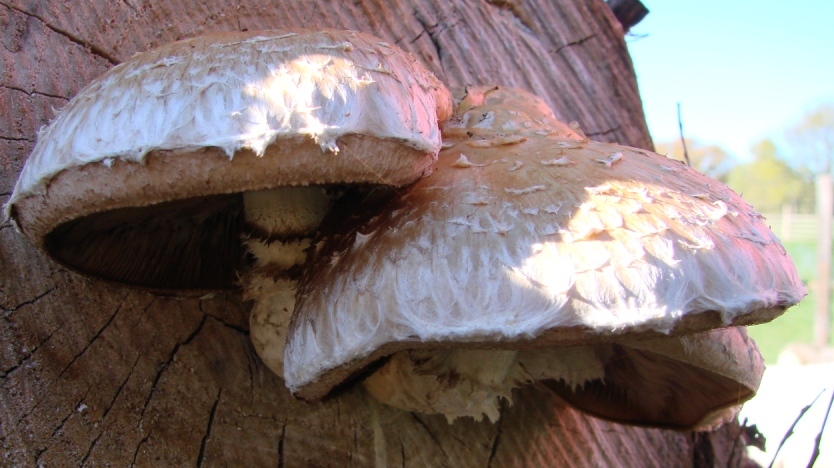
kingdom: Fungi
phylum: Basidiomycota
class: Agaricomycetes
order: Agaricales
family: Strophariaceae
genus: Pholiota
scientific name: Pholiota populnea
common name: poppel-kæmpeskælhat
